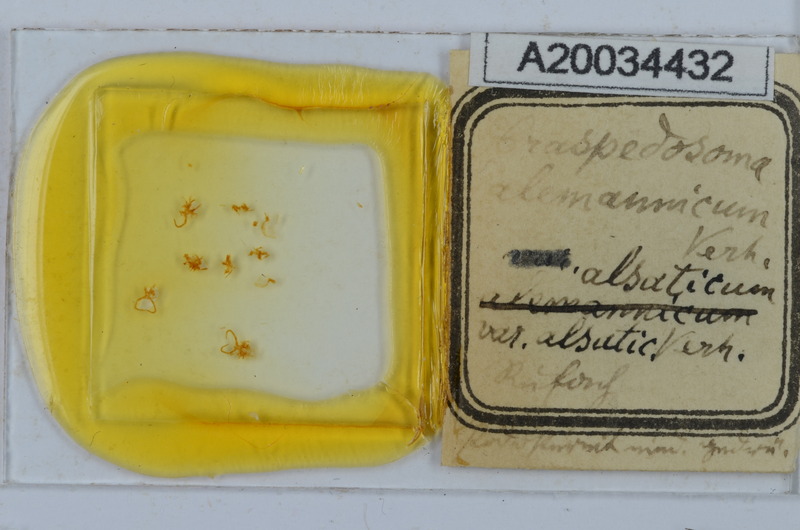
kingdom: Animalia
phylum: Arthropoda
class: Diplopoda
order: Chordeumatida
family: Craspedosomatidae
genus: Craspedosoma
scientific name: Craspedosoma rawlinsii
